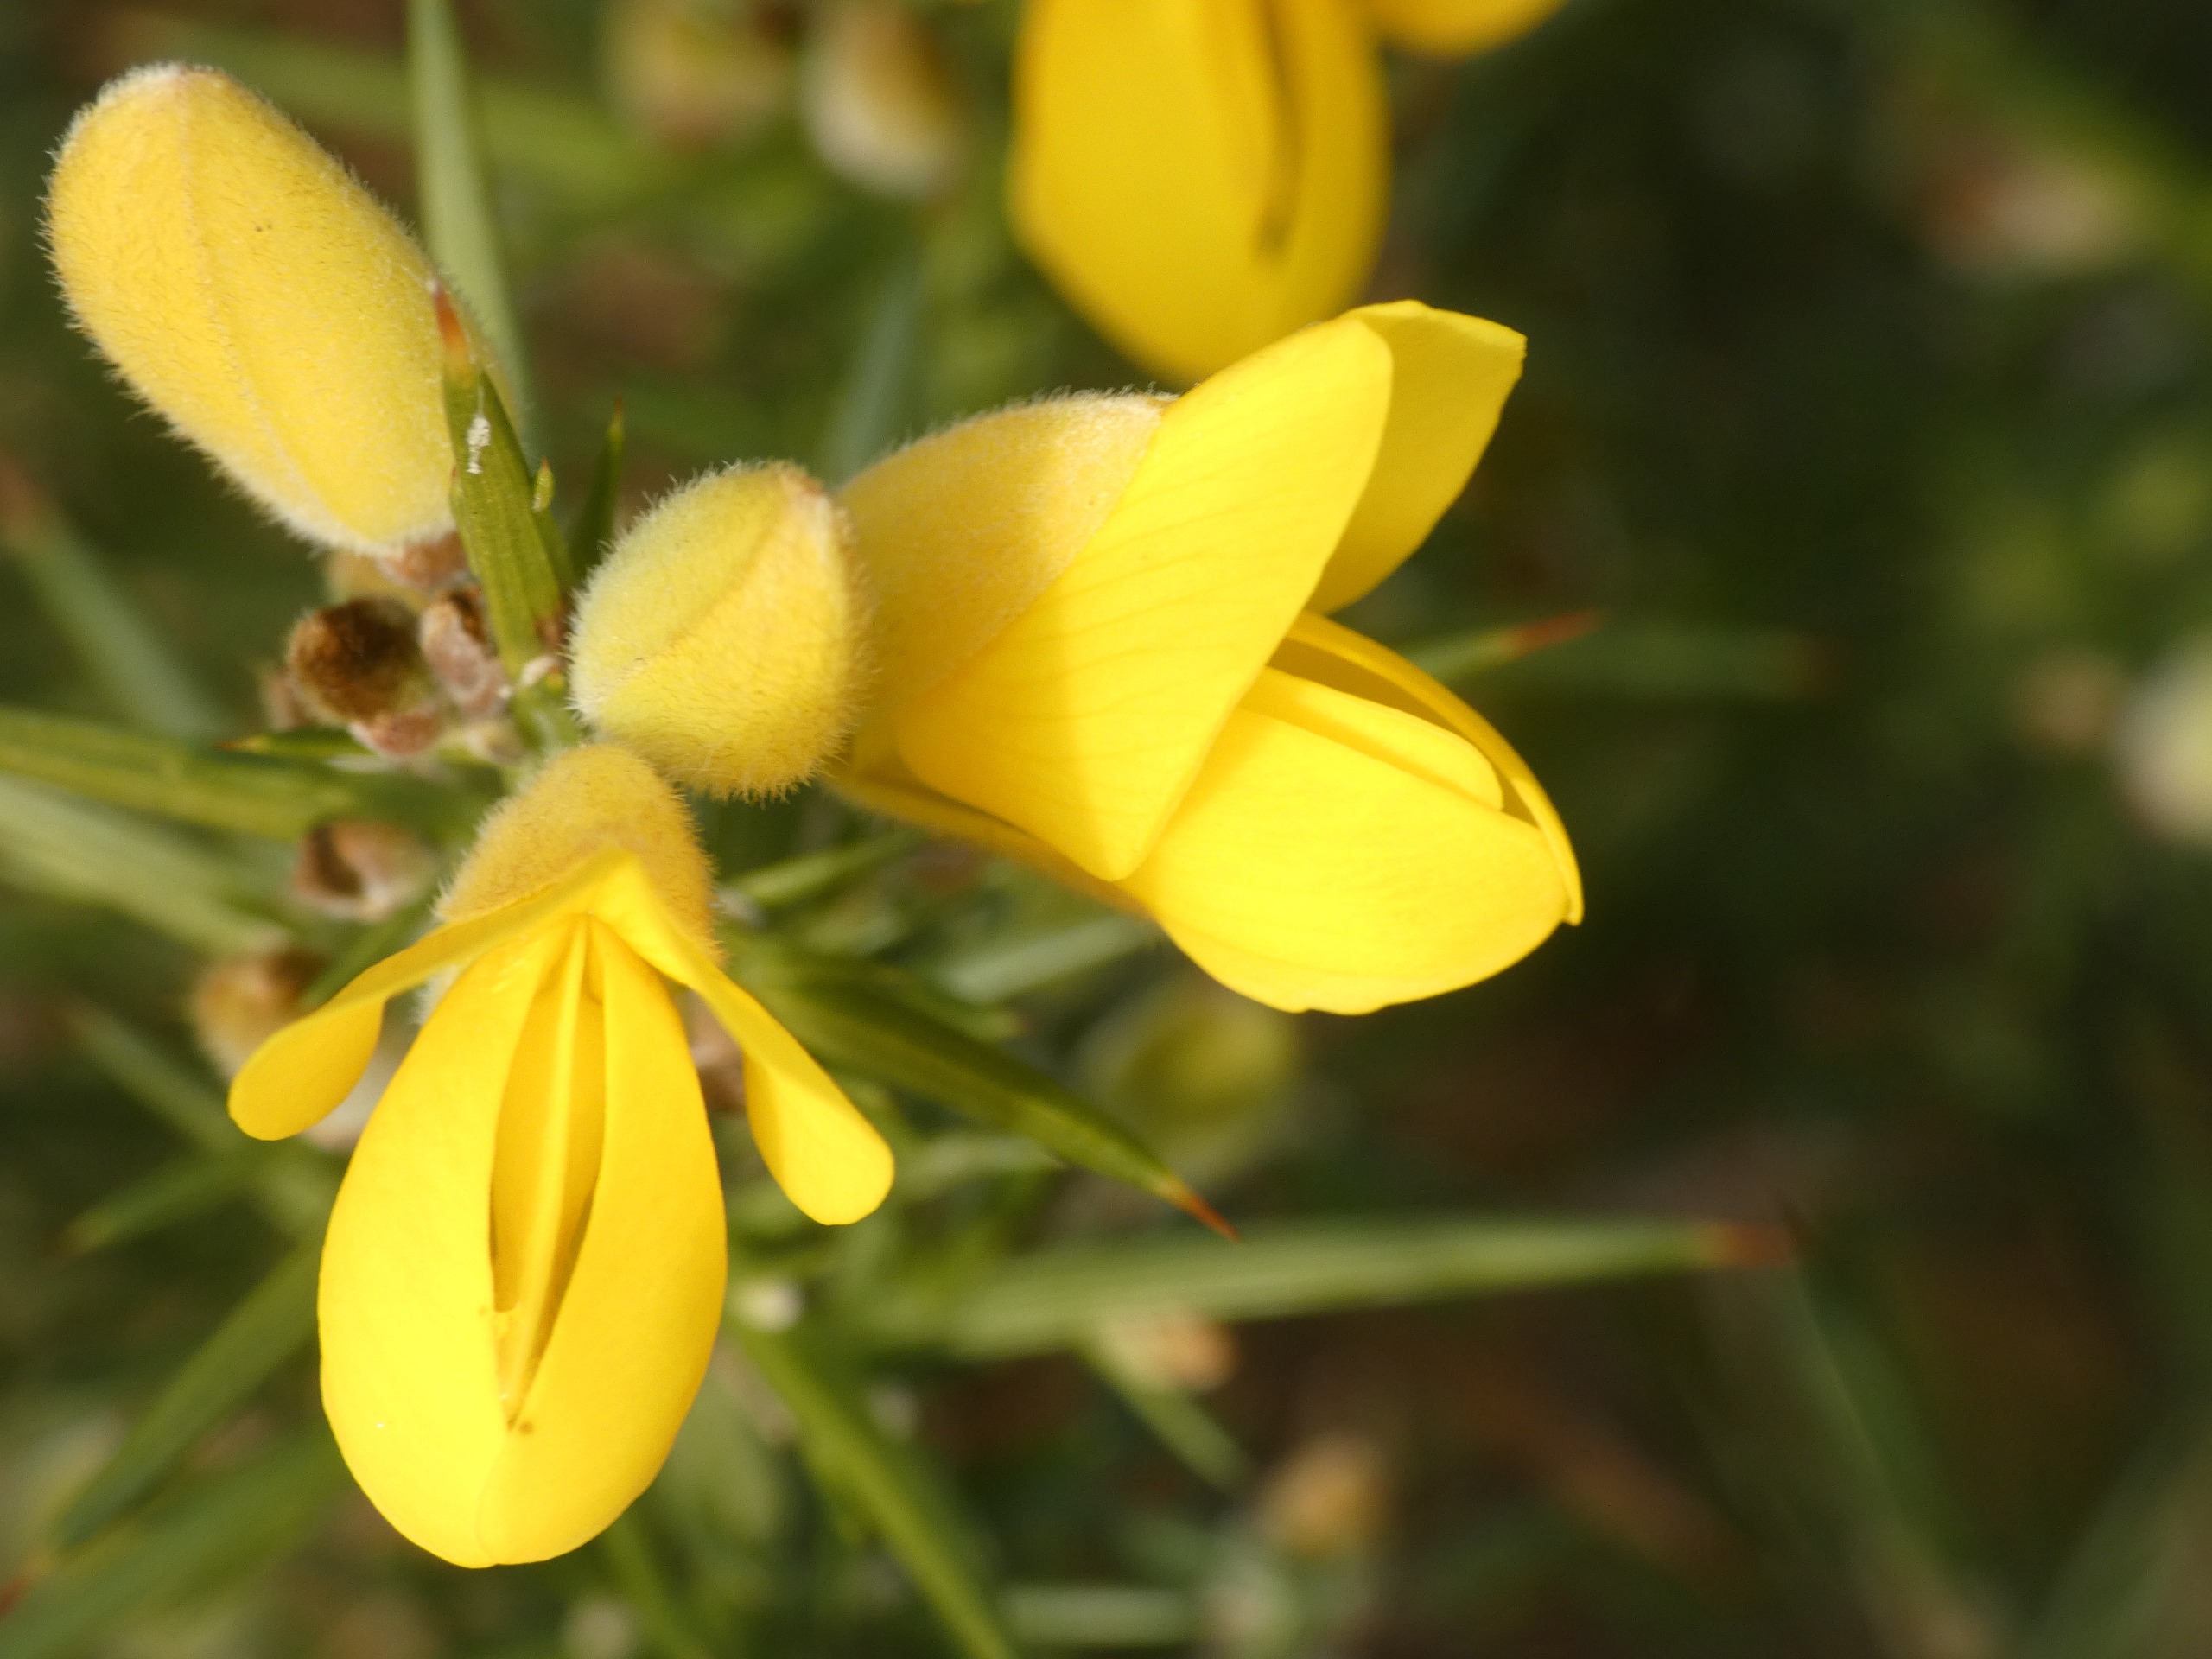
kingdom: Plantae
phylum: Tracheophyta
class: Magnoliopsida
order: Fabales
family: Fabaceae
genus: Ulex
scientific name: Ulex europaeus
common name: Tornblad
